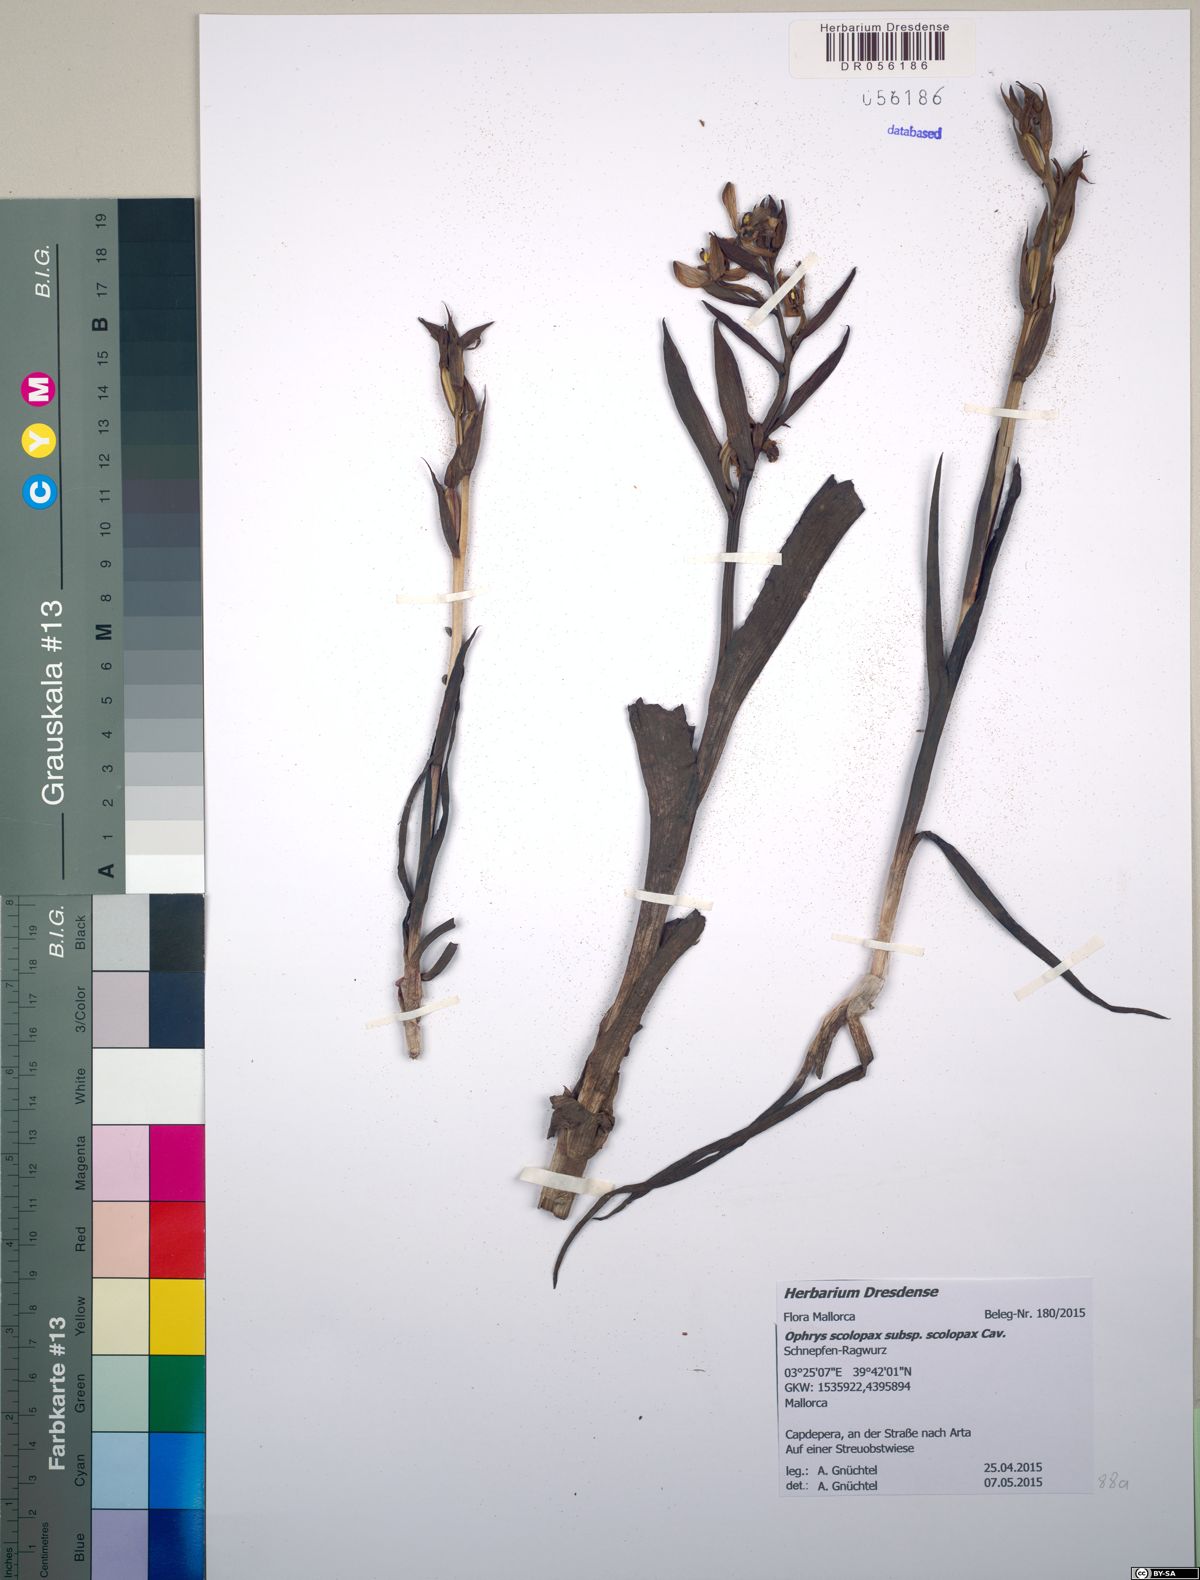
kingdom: Plantae
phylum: Tracheophyta
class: Liliopsida
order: Asparagales
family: Orchidaceae
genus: Ophrys
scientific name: Ophrys scolopax
